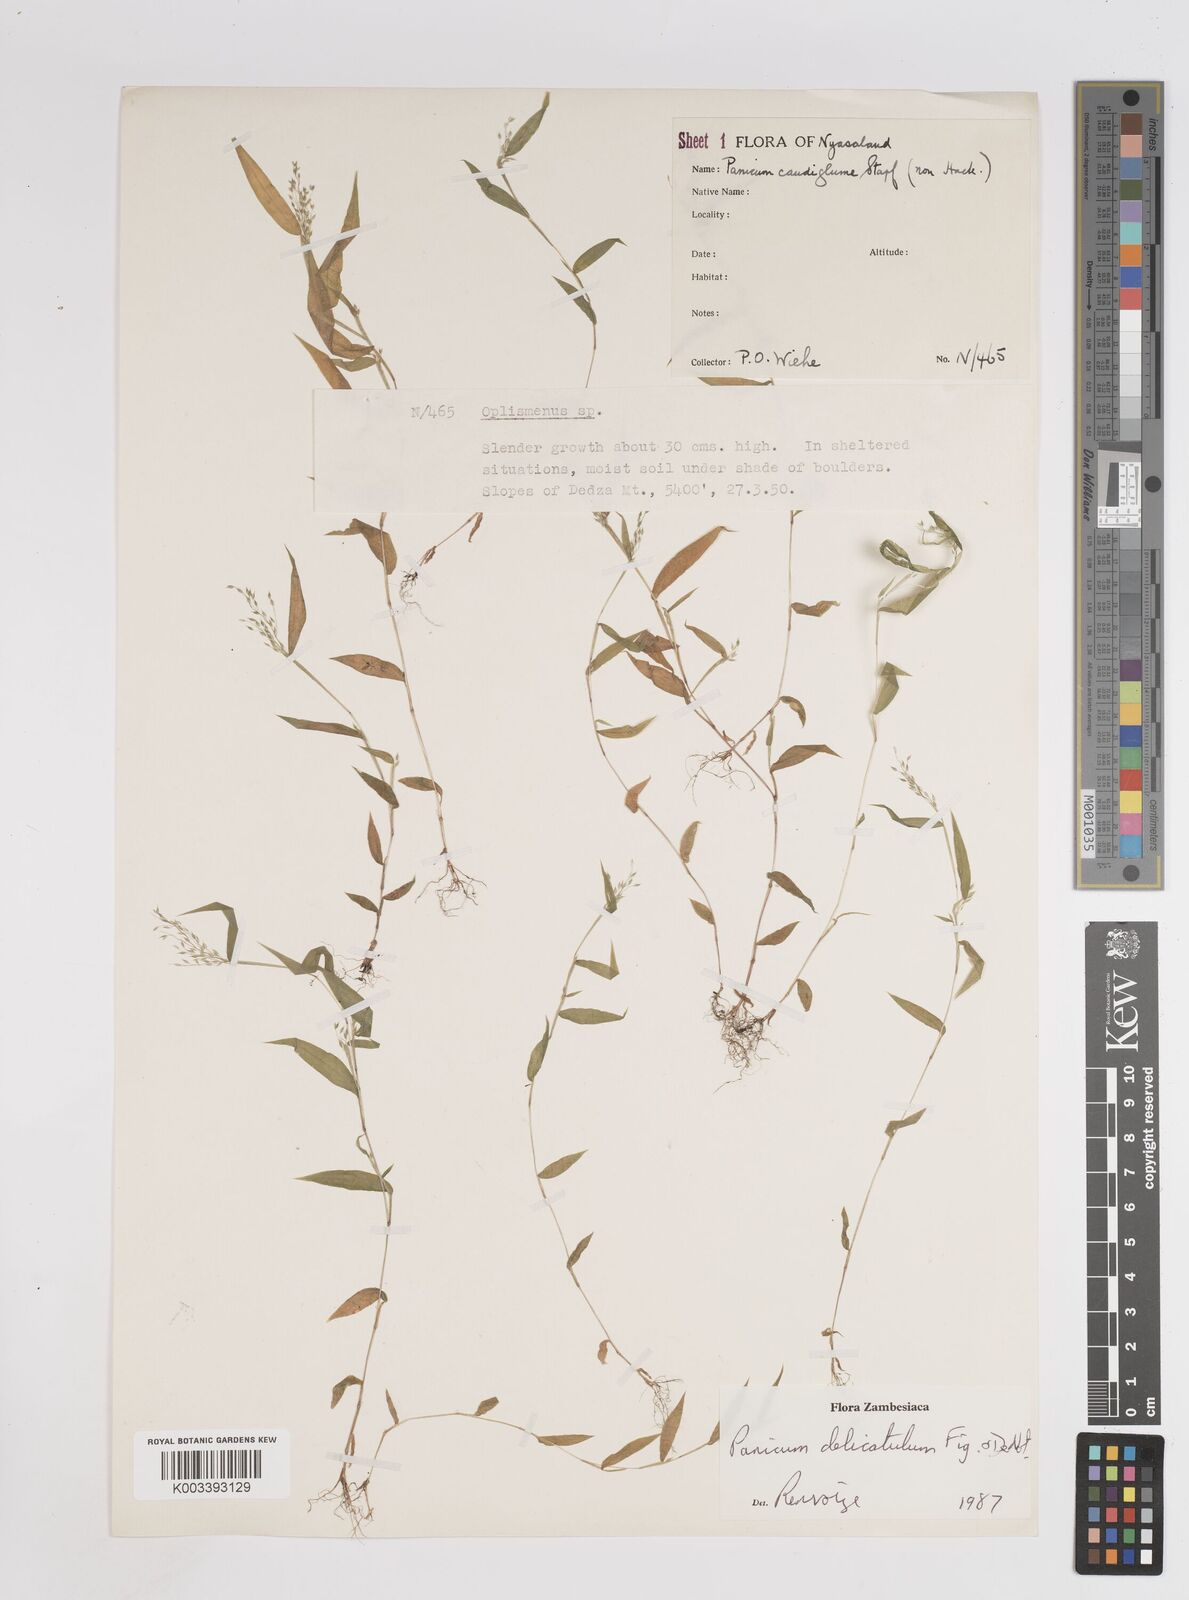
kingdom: Plantae
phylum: Tracheophyta
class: Liliopsida
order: Poales
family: Poaceae
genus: Panicum
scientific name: Panicum delicatulum
